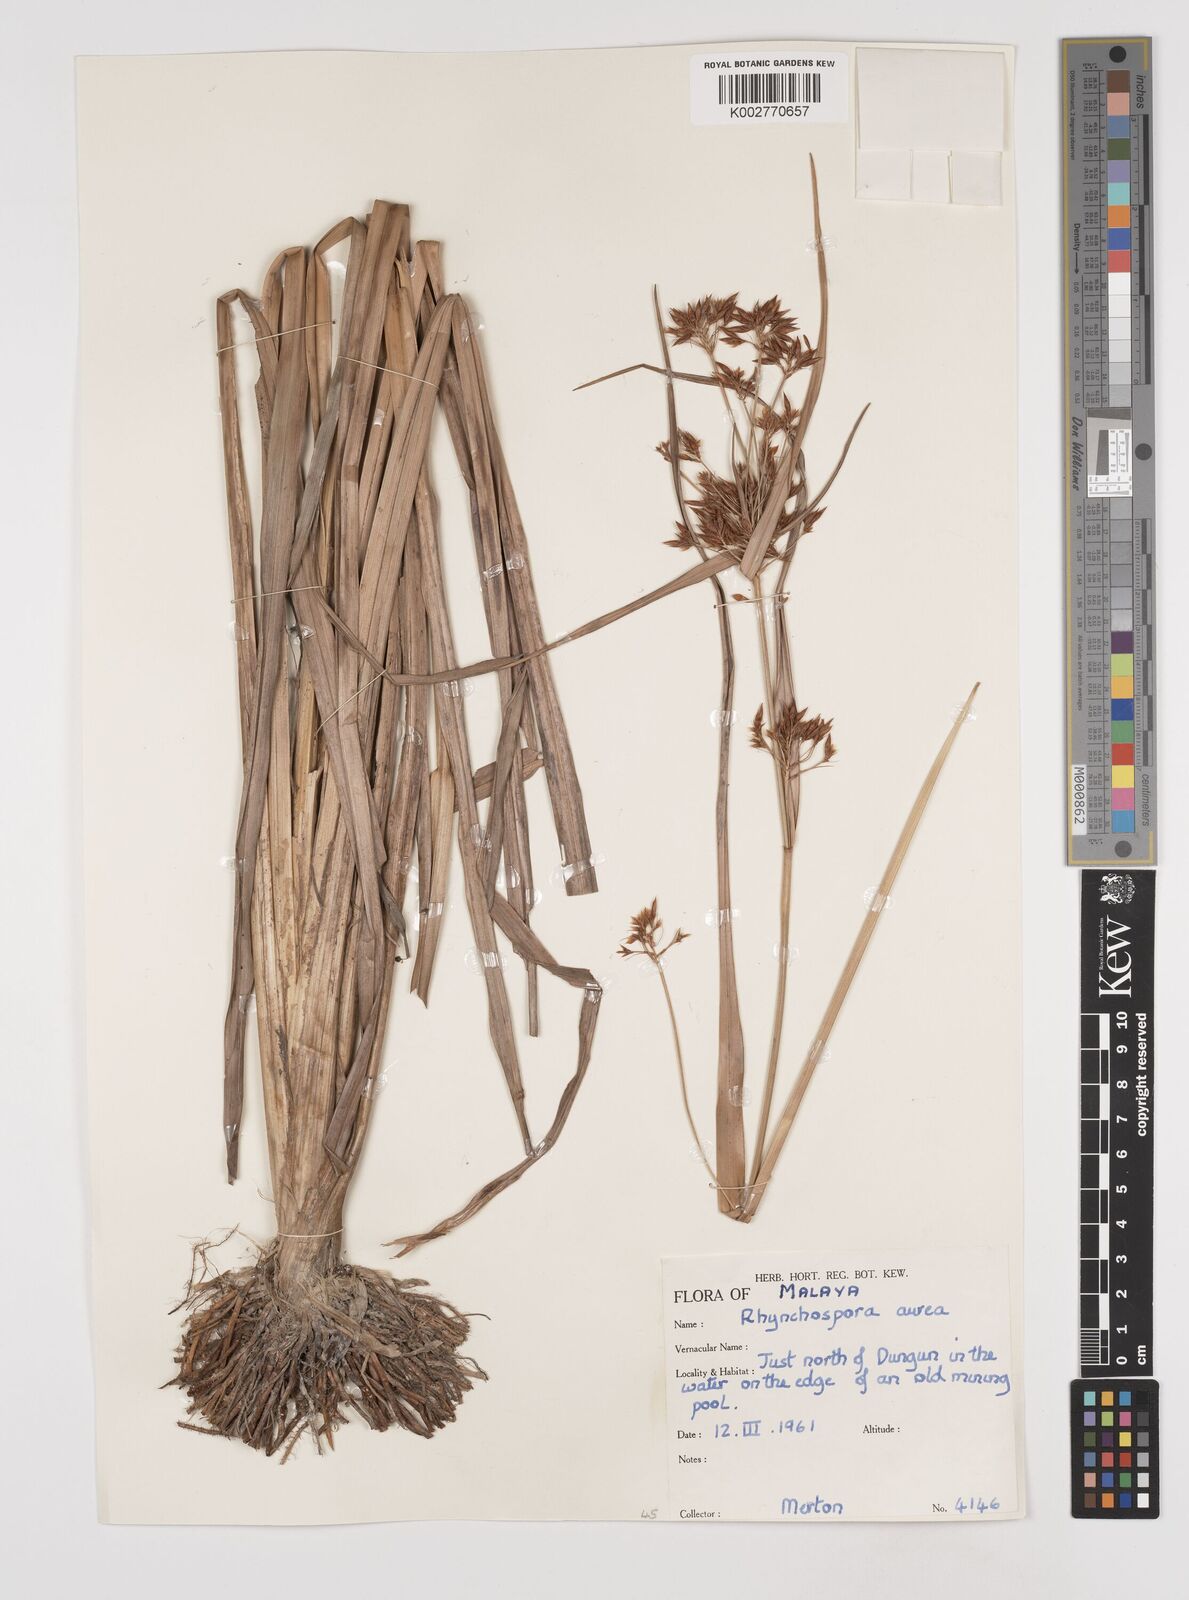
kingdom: Plantae
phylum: Tracheophyta
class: Liliopsida
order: Poales
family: Cyperaceae
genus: Rhynchospora
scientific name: Rhynchospora corymbosa
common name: Golden beak sedge
